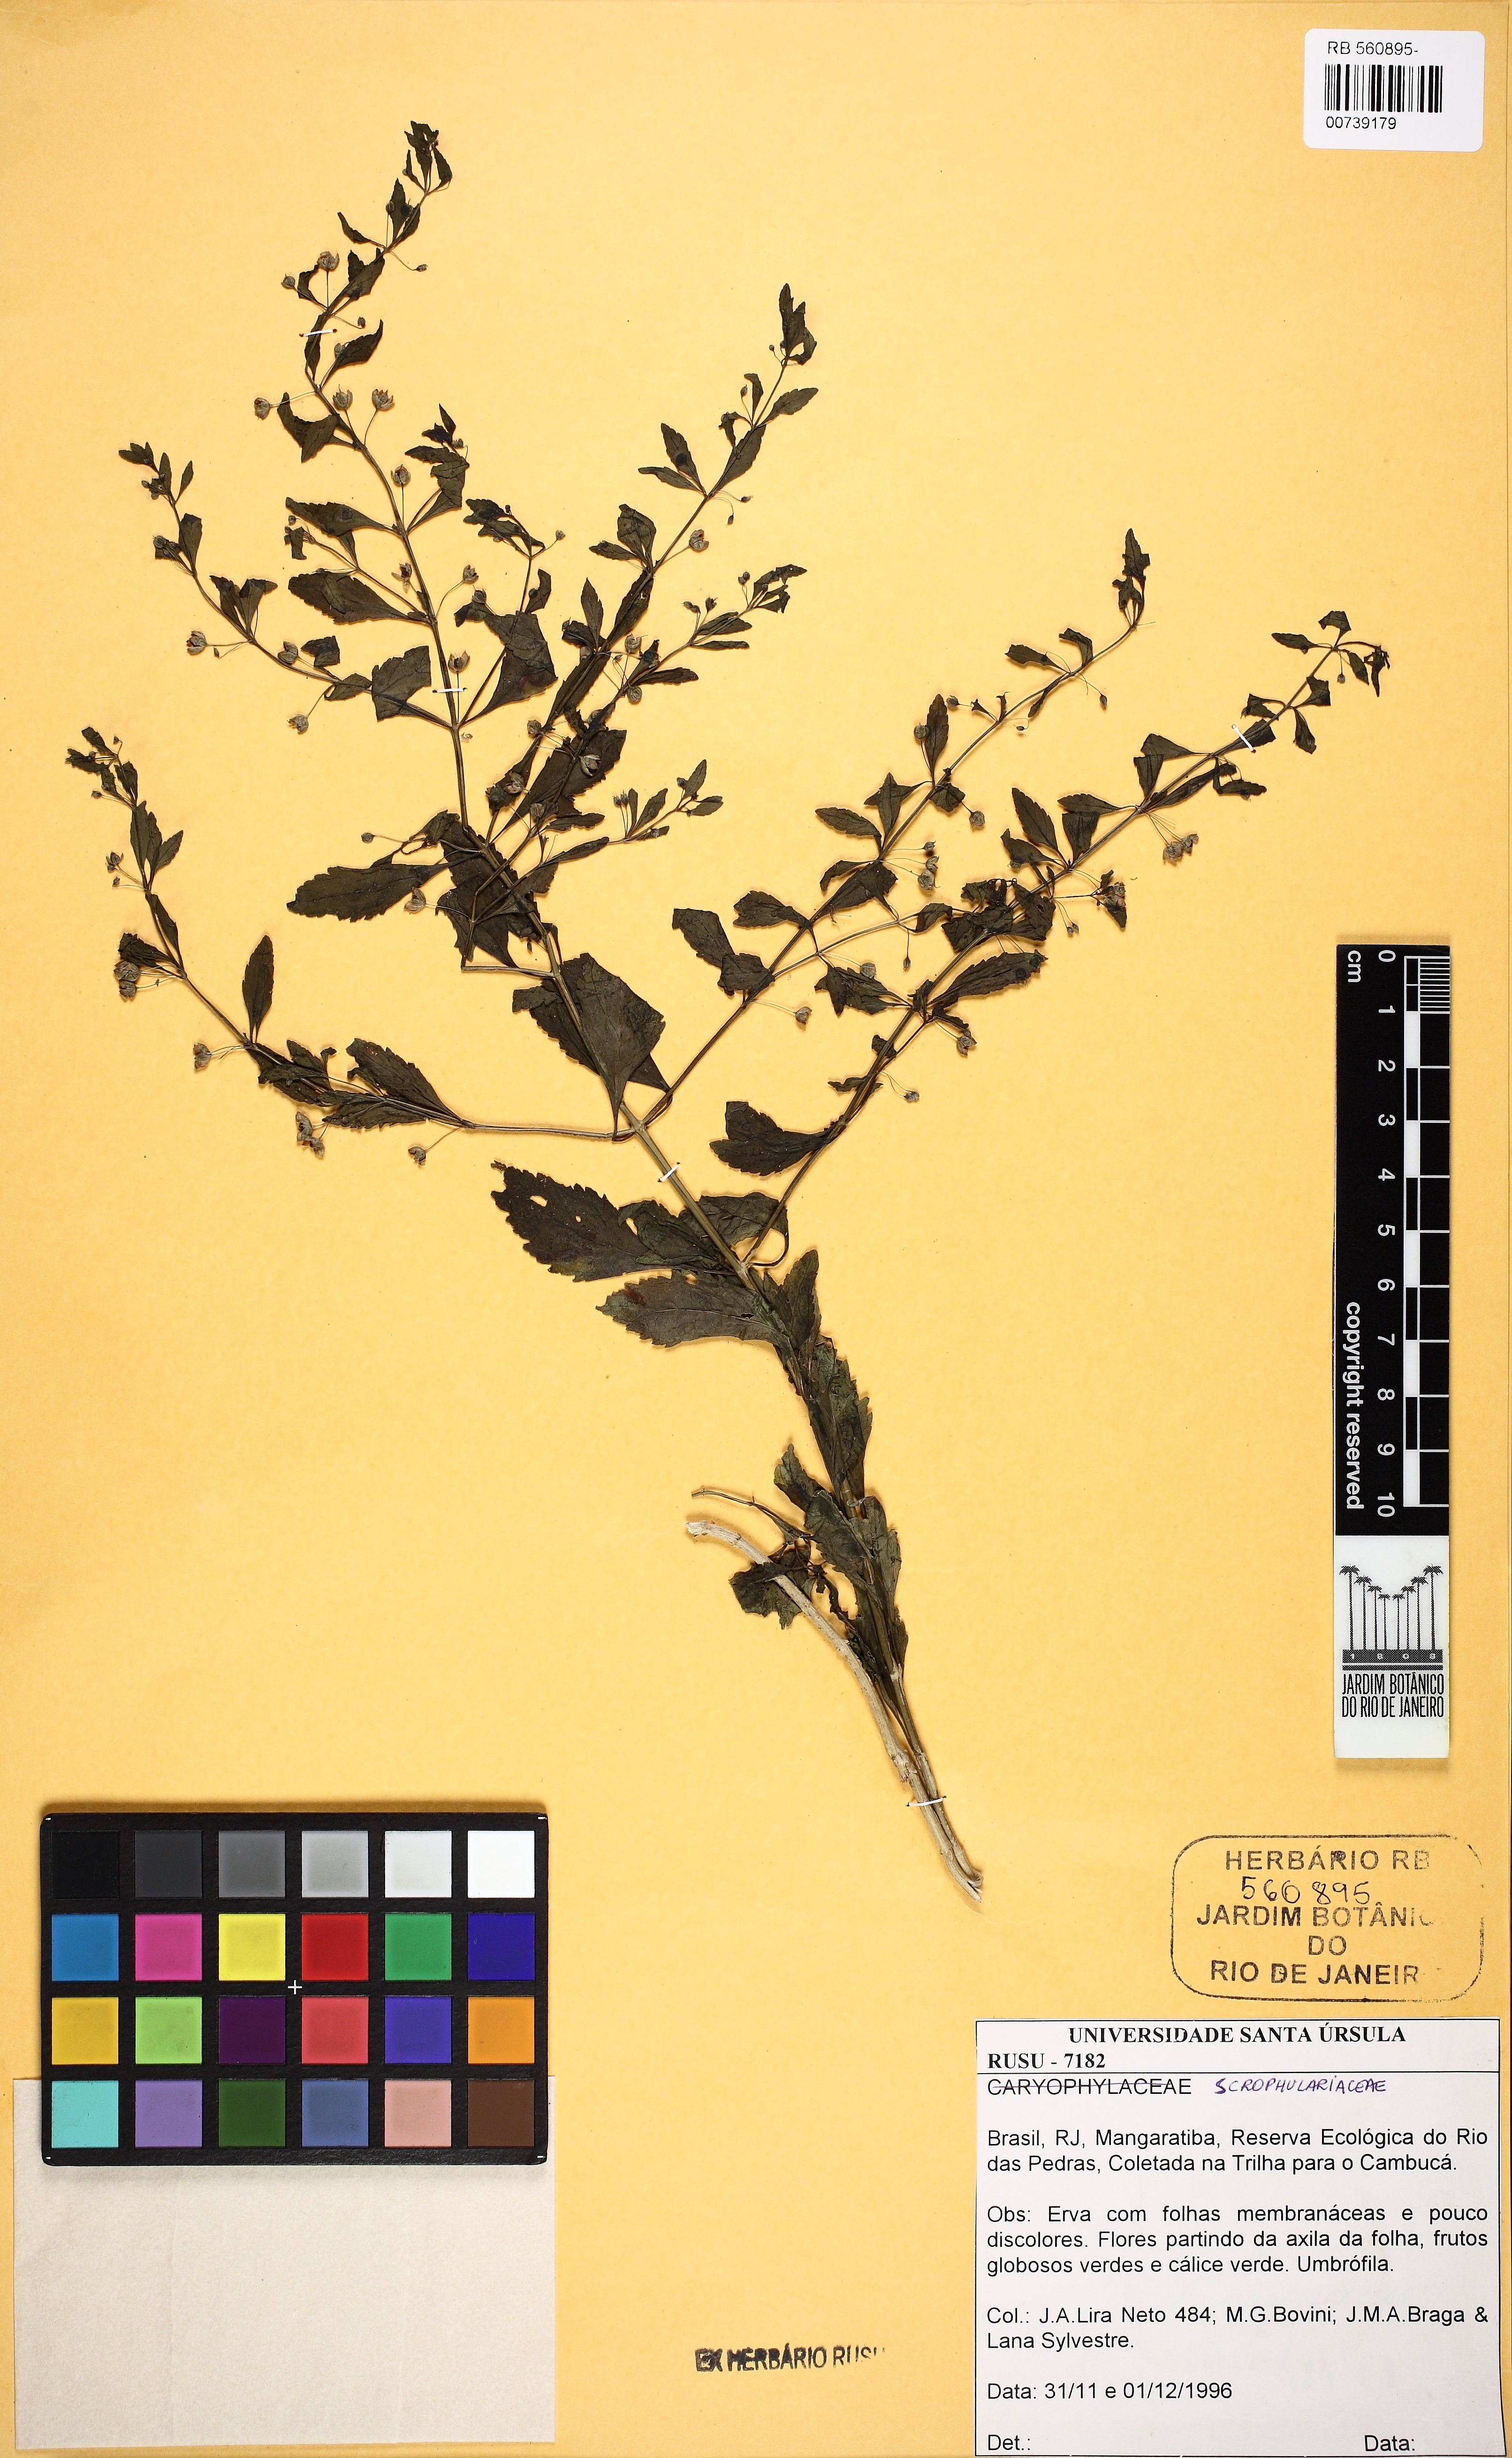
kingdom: Plantae
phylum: Tracheophyta
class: Magnoliopsida
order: Lamiales
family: Plantaginaceae
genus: Scoparia
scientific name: Scoparia dulcis
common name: Scoparia-weed
